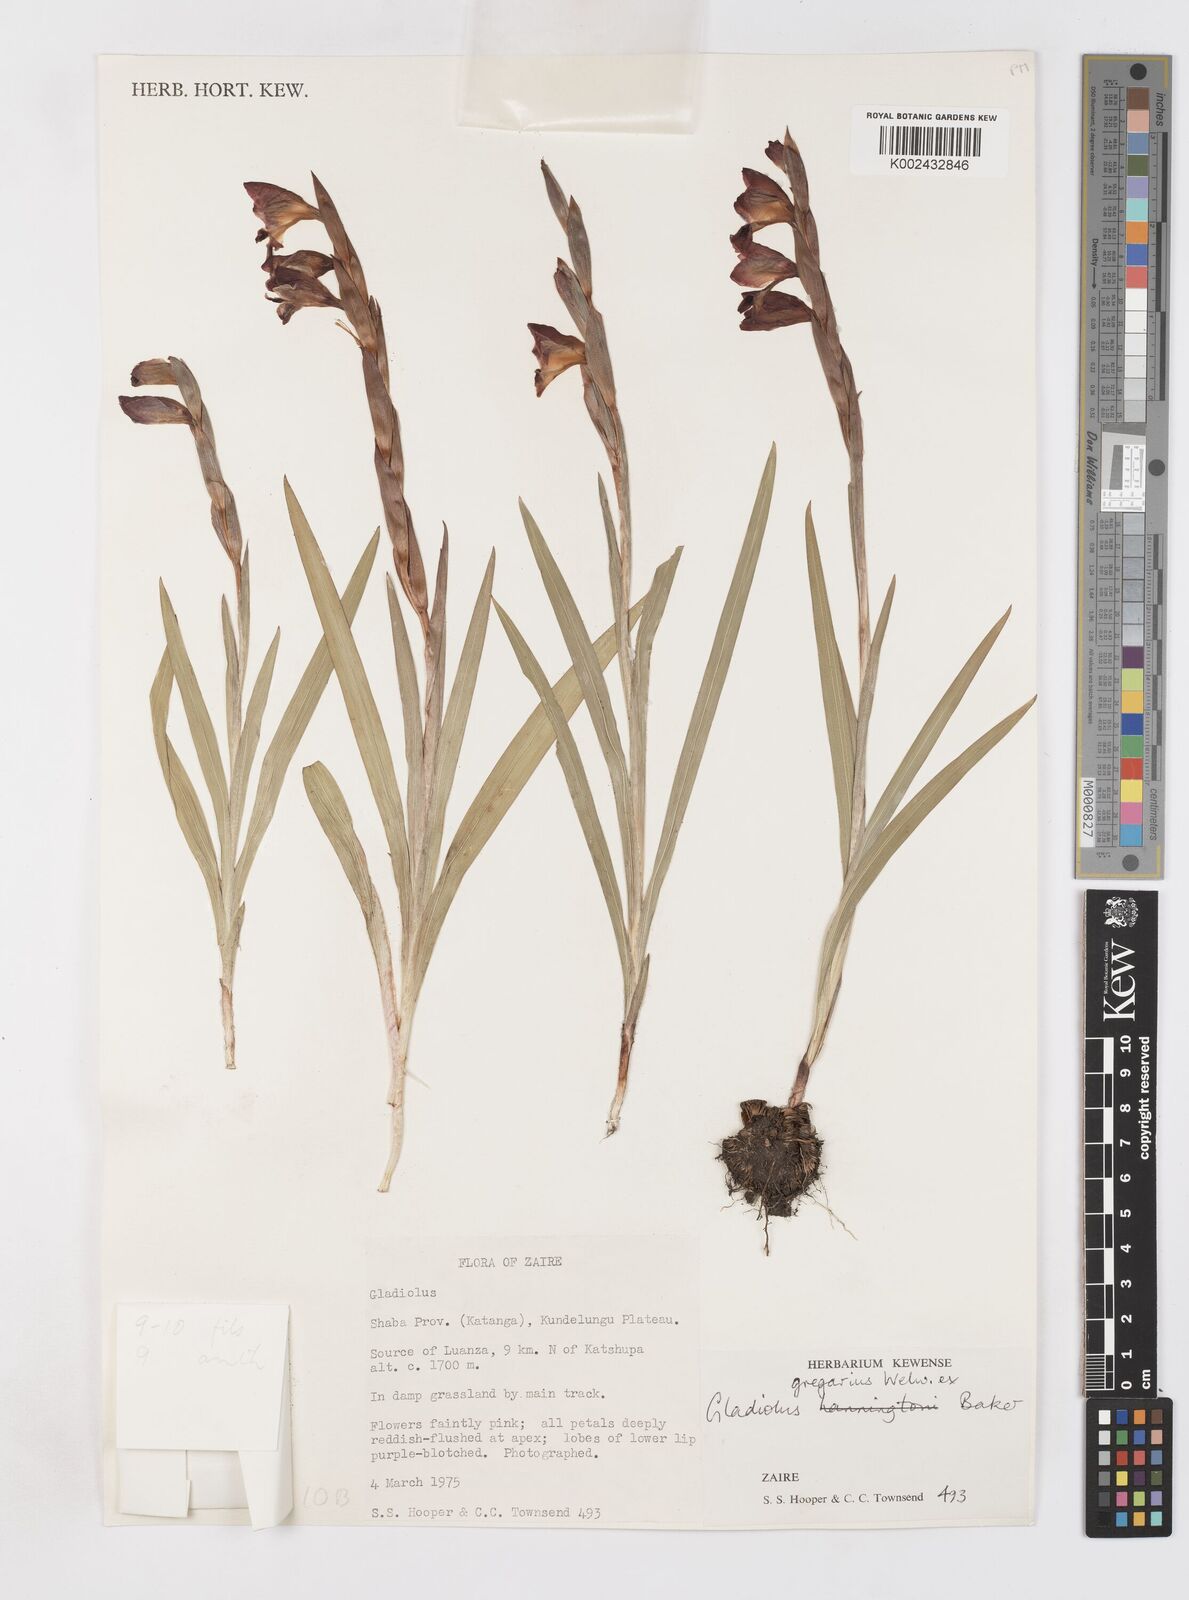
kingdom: Plantae
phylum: Tracheophyta
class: Liliopsida
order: Asparagales
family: Iridaceae
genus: Gladiolus
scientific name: Gladiolus gregarius
